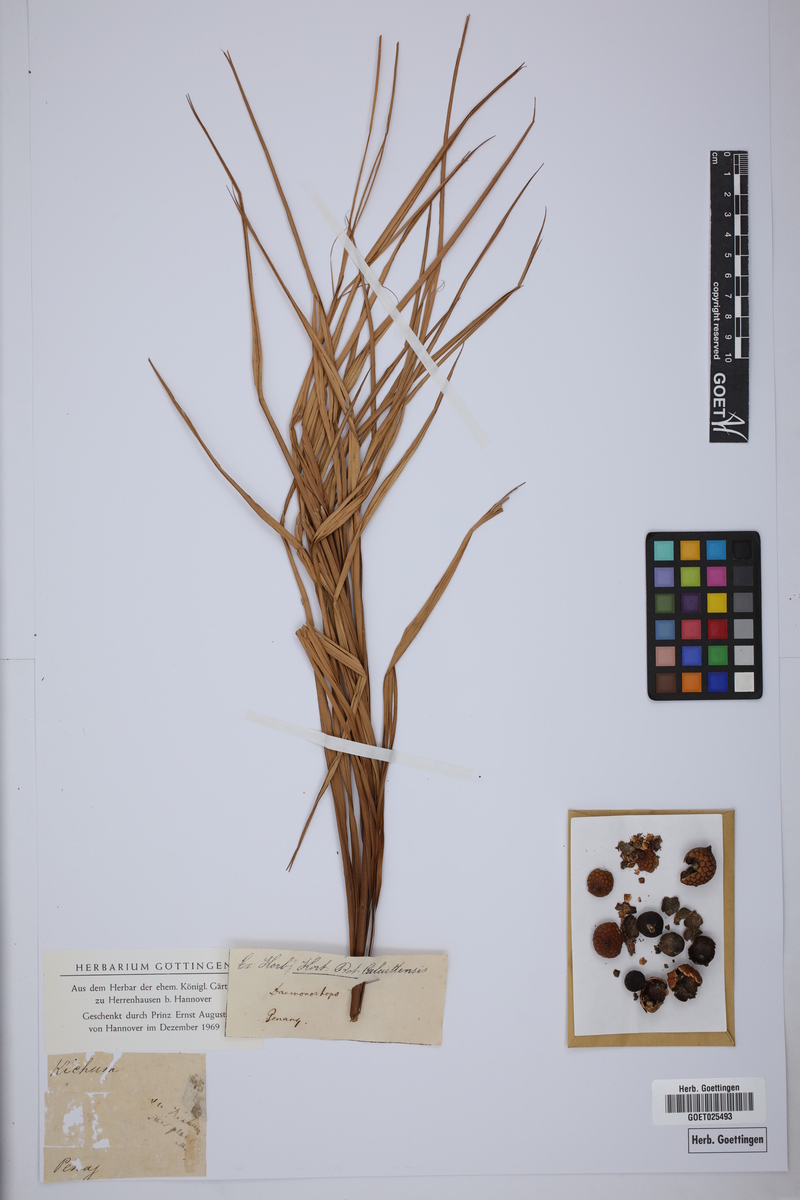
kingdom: Plantae
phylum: Tracheophyta
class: Liliopsida
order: Arecales
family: Arecaceae
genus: Calamus
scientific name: Calamus calicarpus
